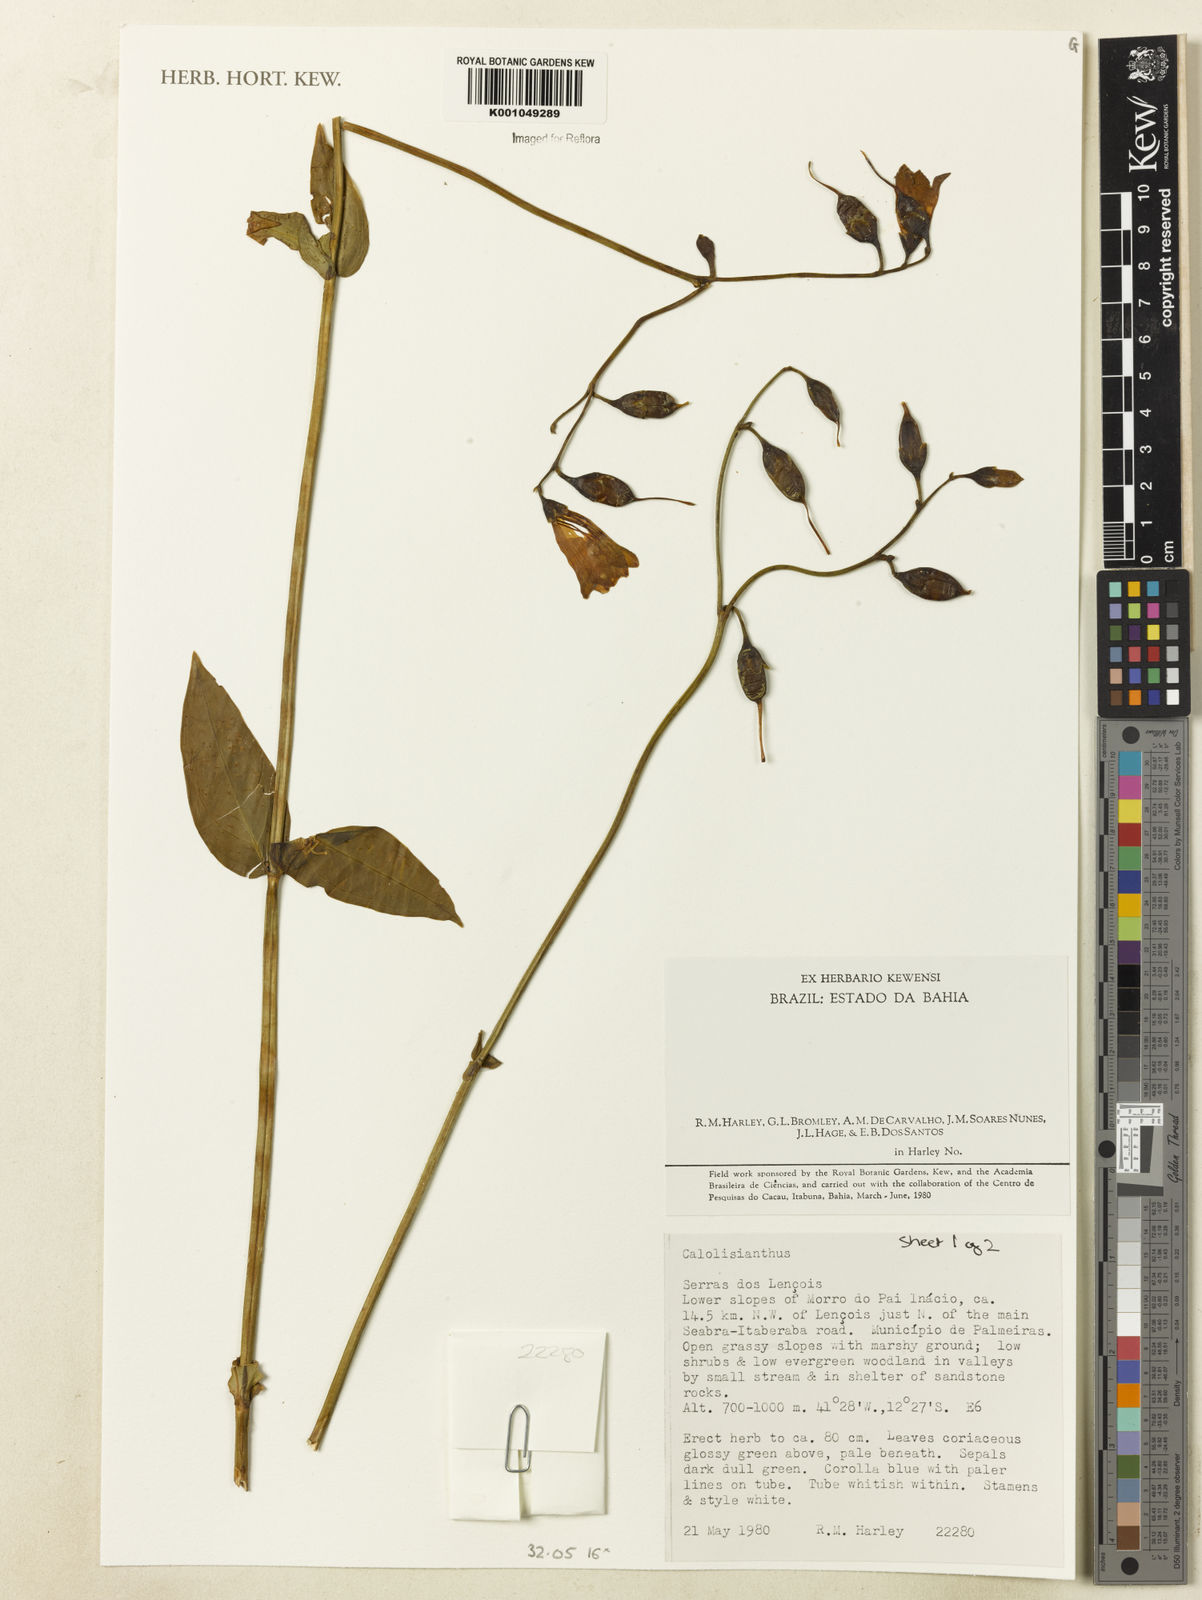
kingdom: Plantae
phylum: Tracheophyta
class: Magnoliopsida
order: Gentianales
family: Gentianaceae
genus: Calolisianthus
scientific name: Calolisianthus
